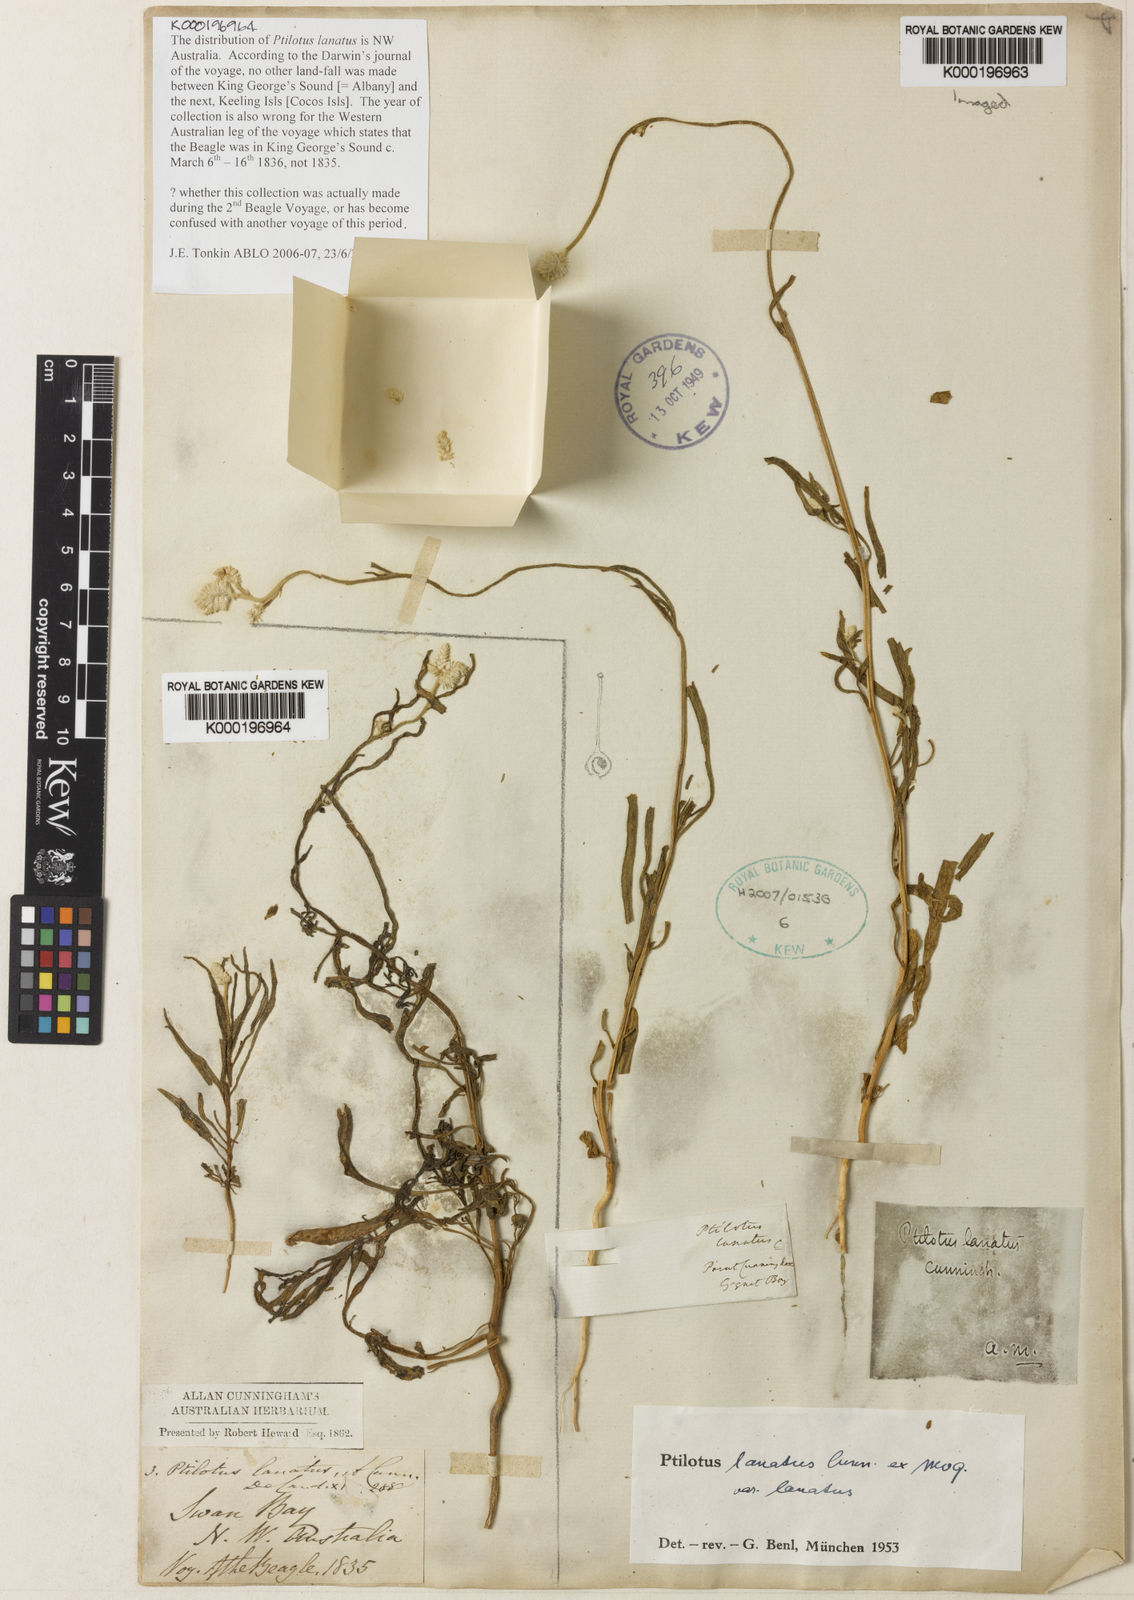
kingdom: Plantae
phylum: Tracheophyta
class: Magnoliopsida
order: Caryophyllales
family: Amaranthaceae
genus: Ptilotus
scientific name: Ptilotus lanatus
